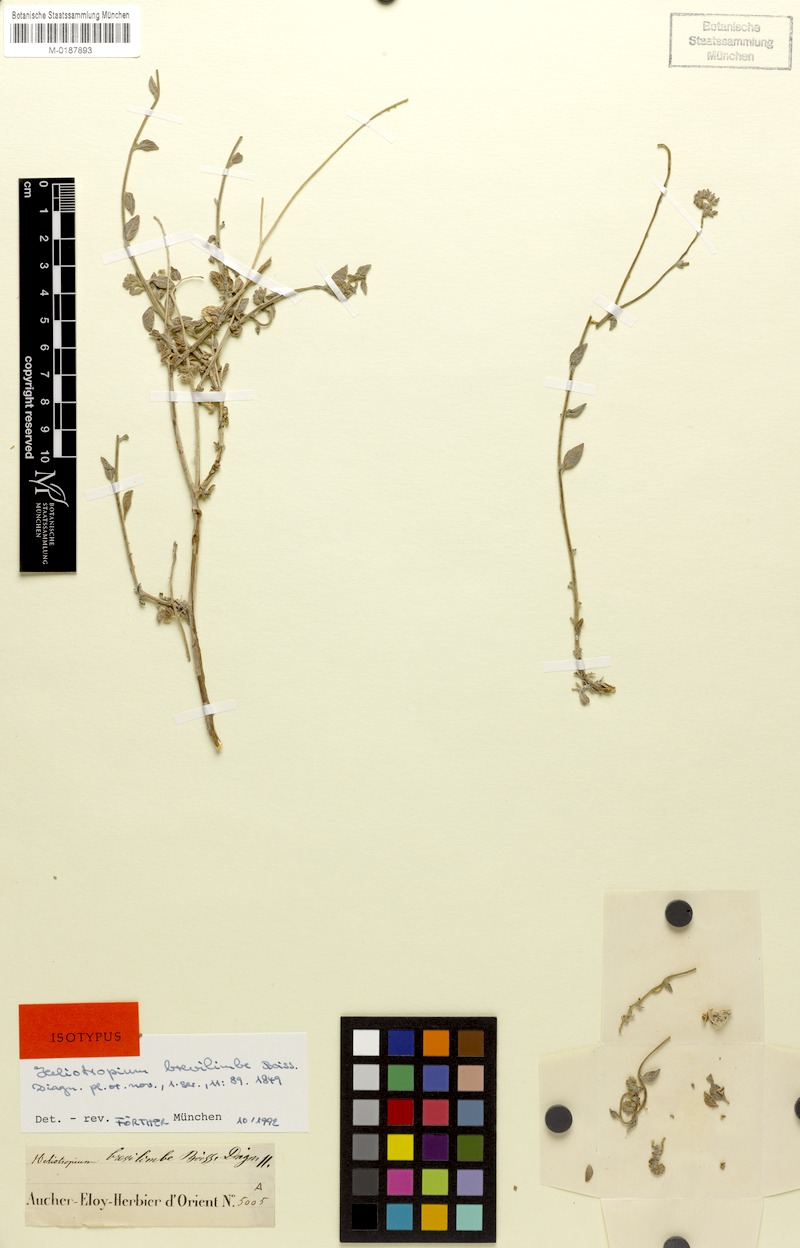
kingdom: Plantae
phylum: Tracheophyta
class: Magnoliopsida
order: Boraginales
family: Heliotropiaceae
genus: Heliotropium
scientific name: Heliotropium brevilimbe
